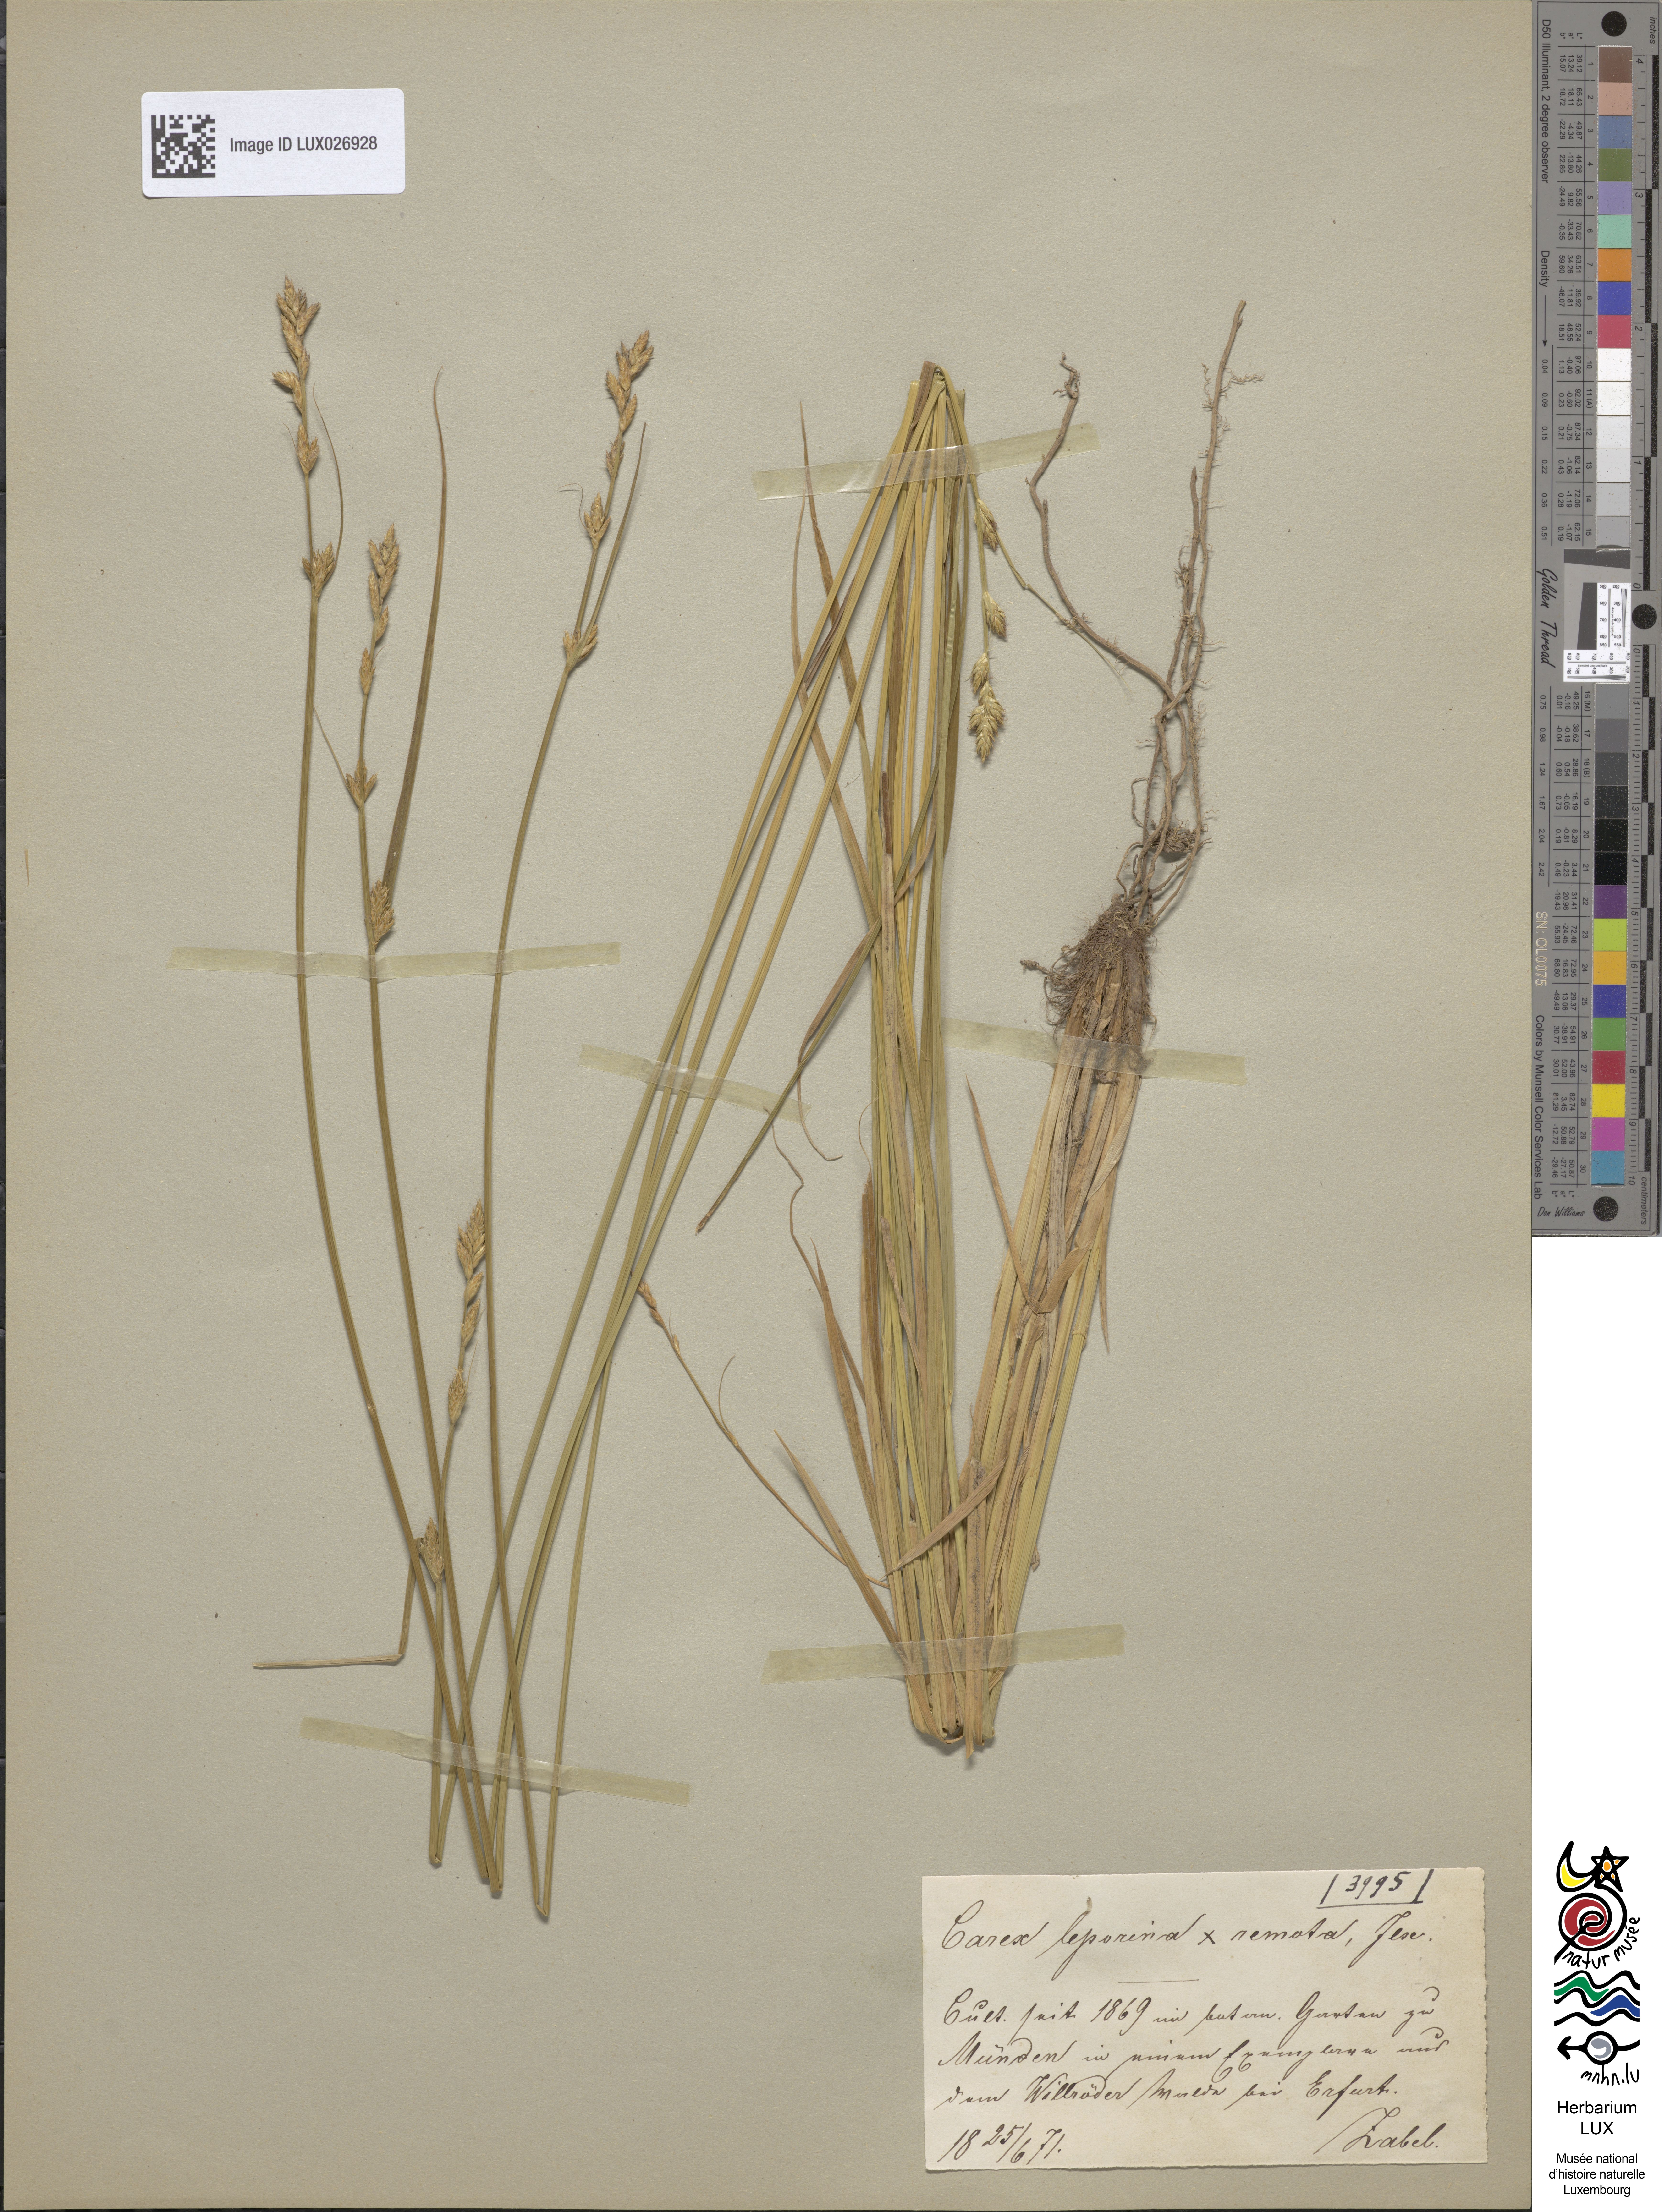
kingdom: Plantae
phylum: Tracheophyta
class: Liliopsida
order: Poales
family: Cyperaceae
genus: Carex
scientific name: Carex ilseana
